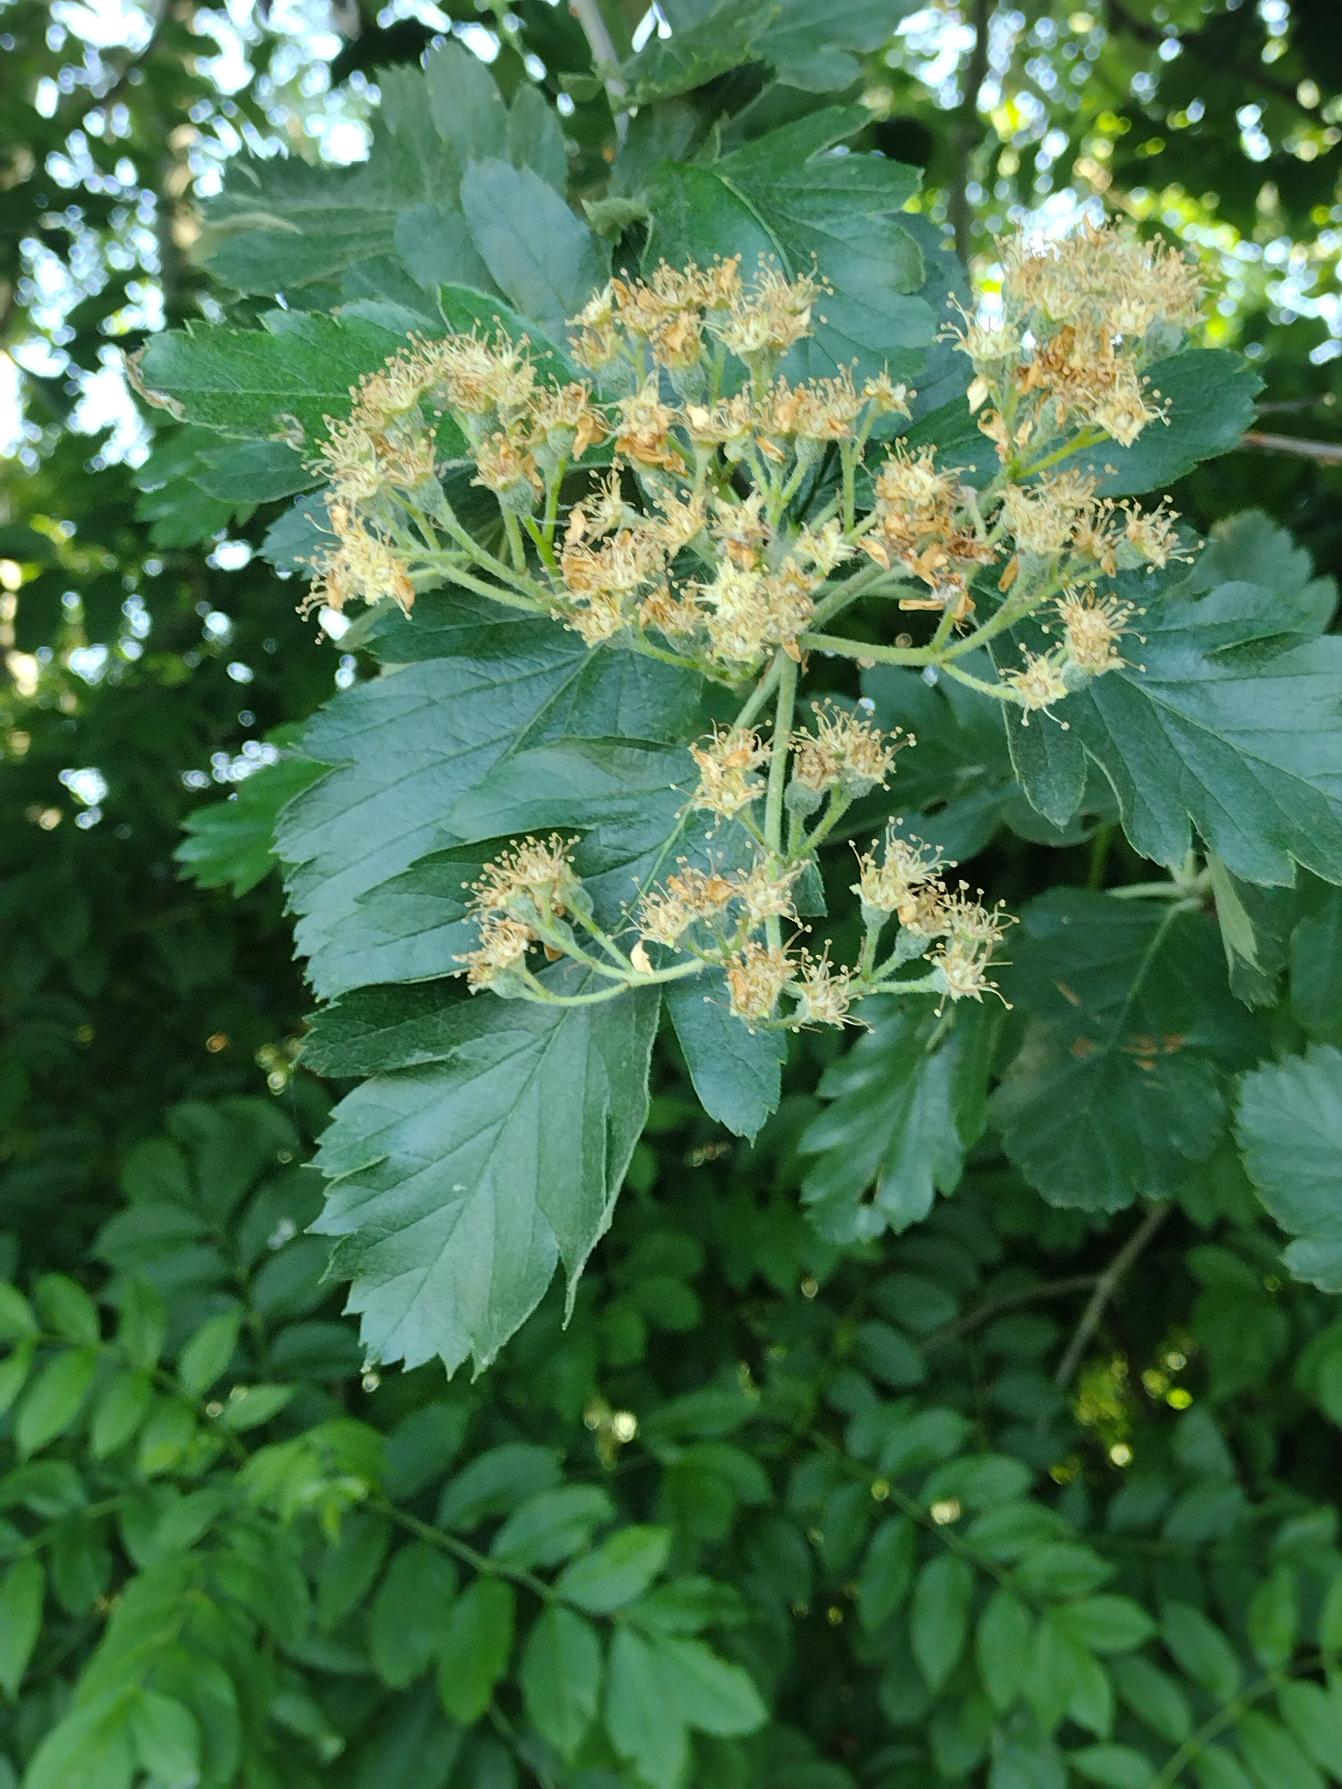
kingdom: Plantae
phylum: Tracheophyta
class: Magnoliopsida
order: Rosales
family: Rosaceae
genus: Scandosorbus
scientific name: Scandosorbus intermedia
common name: Selje-røn
